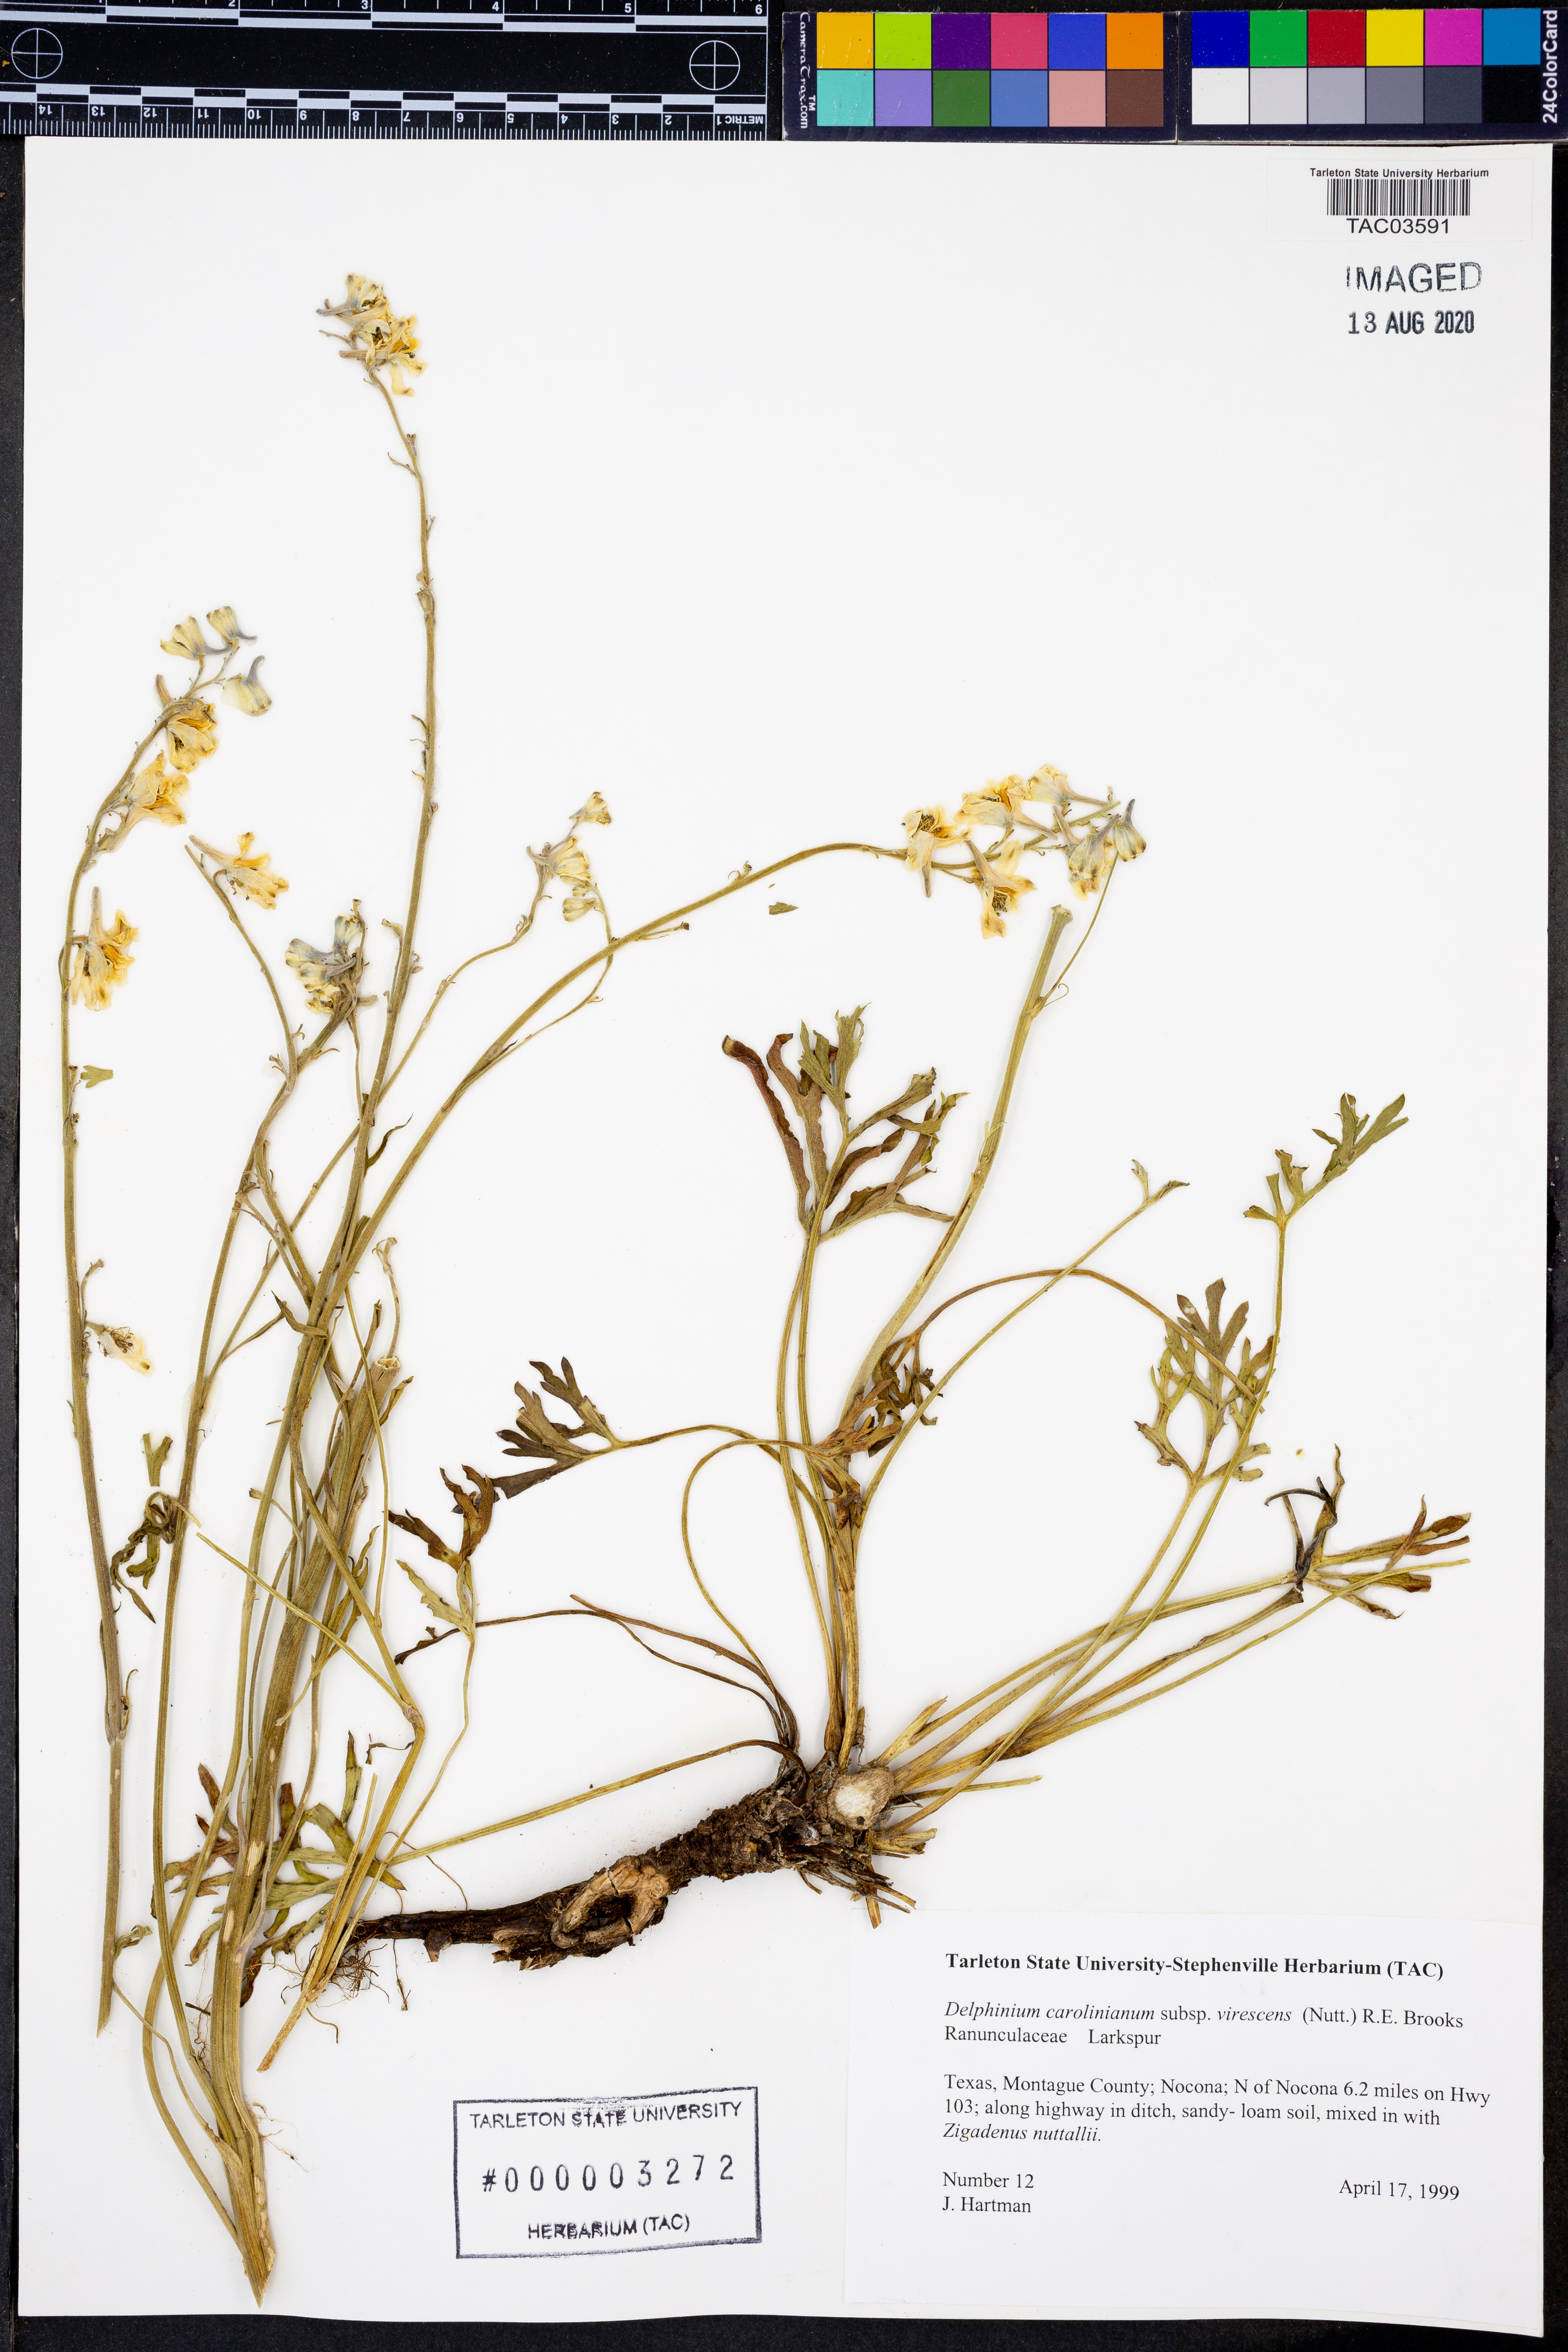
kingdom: Plantae
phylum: Tracheophyta
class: Magnoliopsida
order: Ranunculales
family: Ranunculaceae
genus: Delphinium
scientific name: Delphinium carolinianum
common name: Carolina larkspur
